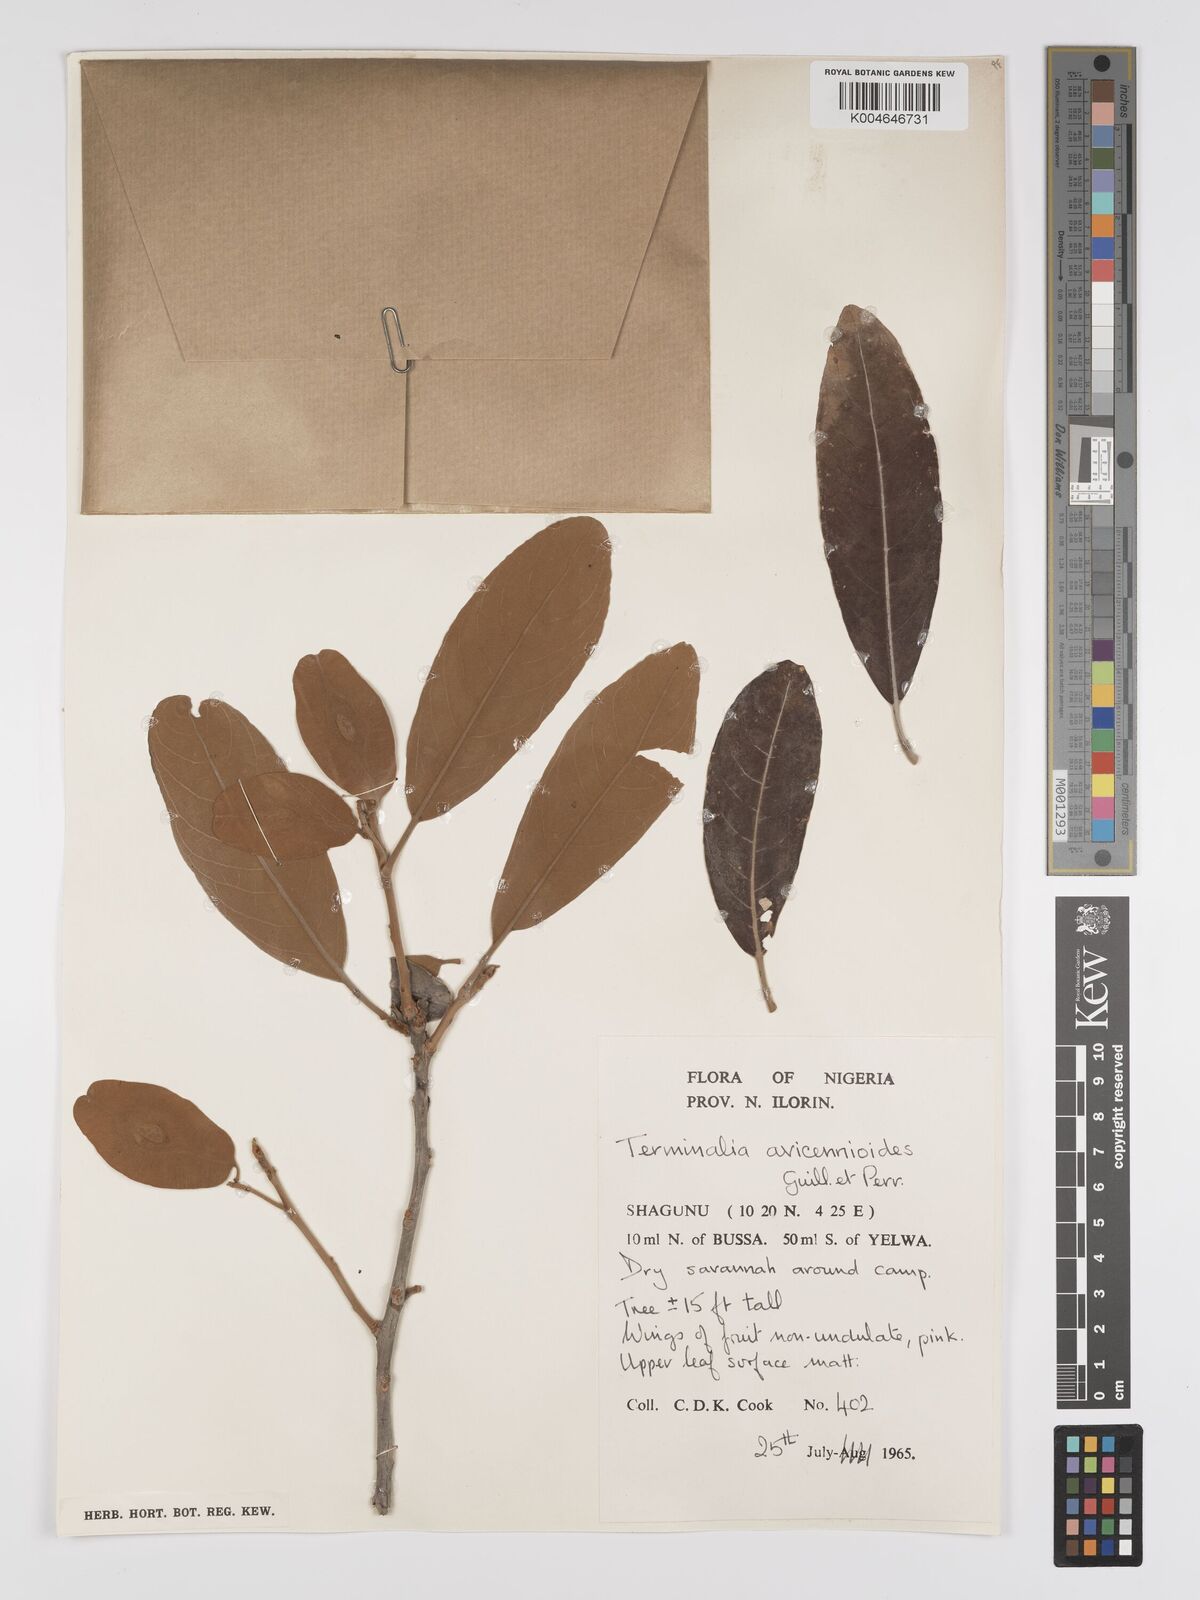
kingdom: Plantae
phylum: Tracheophyta
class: Magnoliopsida
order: Myrtales
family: Combretaceae
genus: Terminalia
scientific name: Terminalia avicennioides
